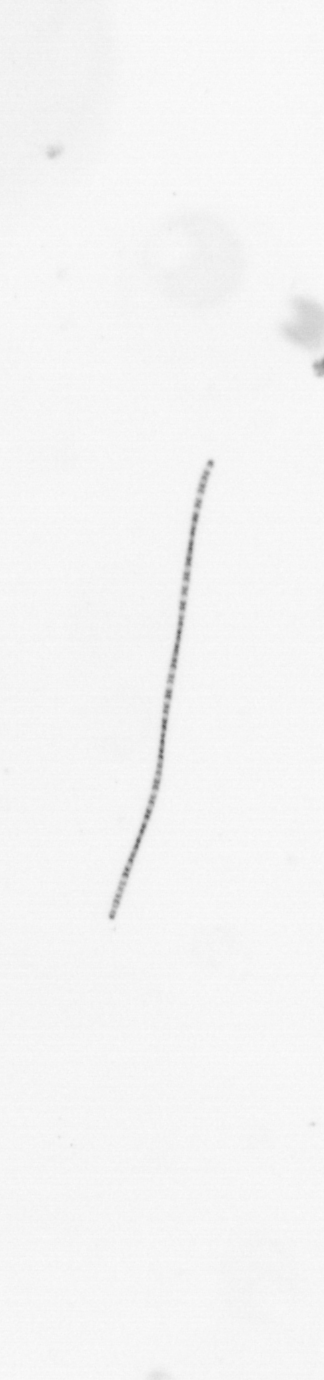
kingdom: Chromista
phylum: Ochrophyta
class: Bacillariophyceae
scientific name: Bacillariophyceae
